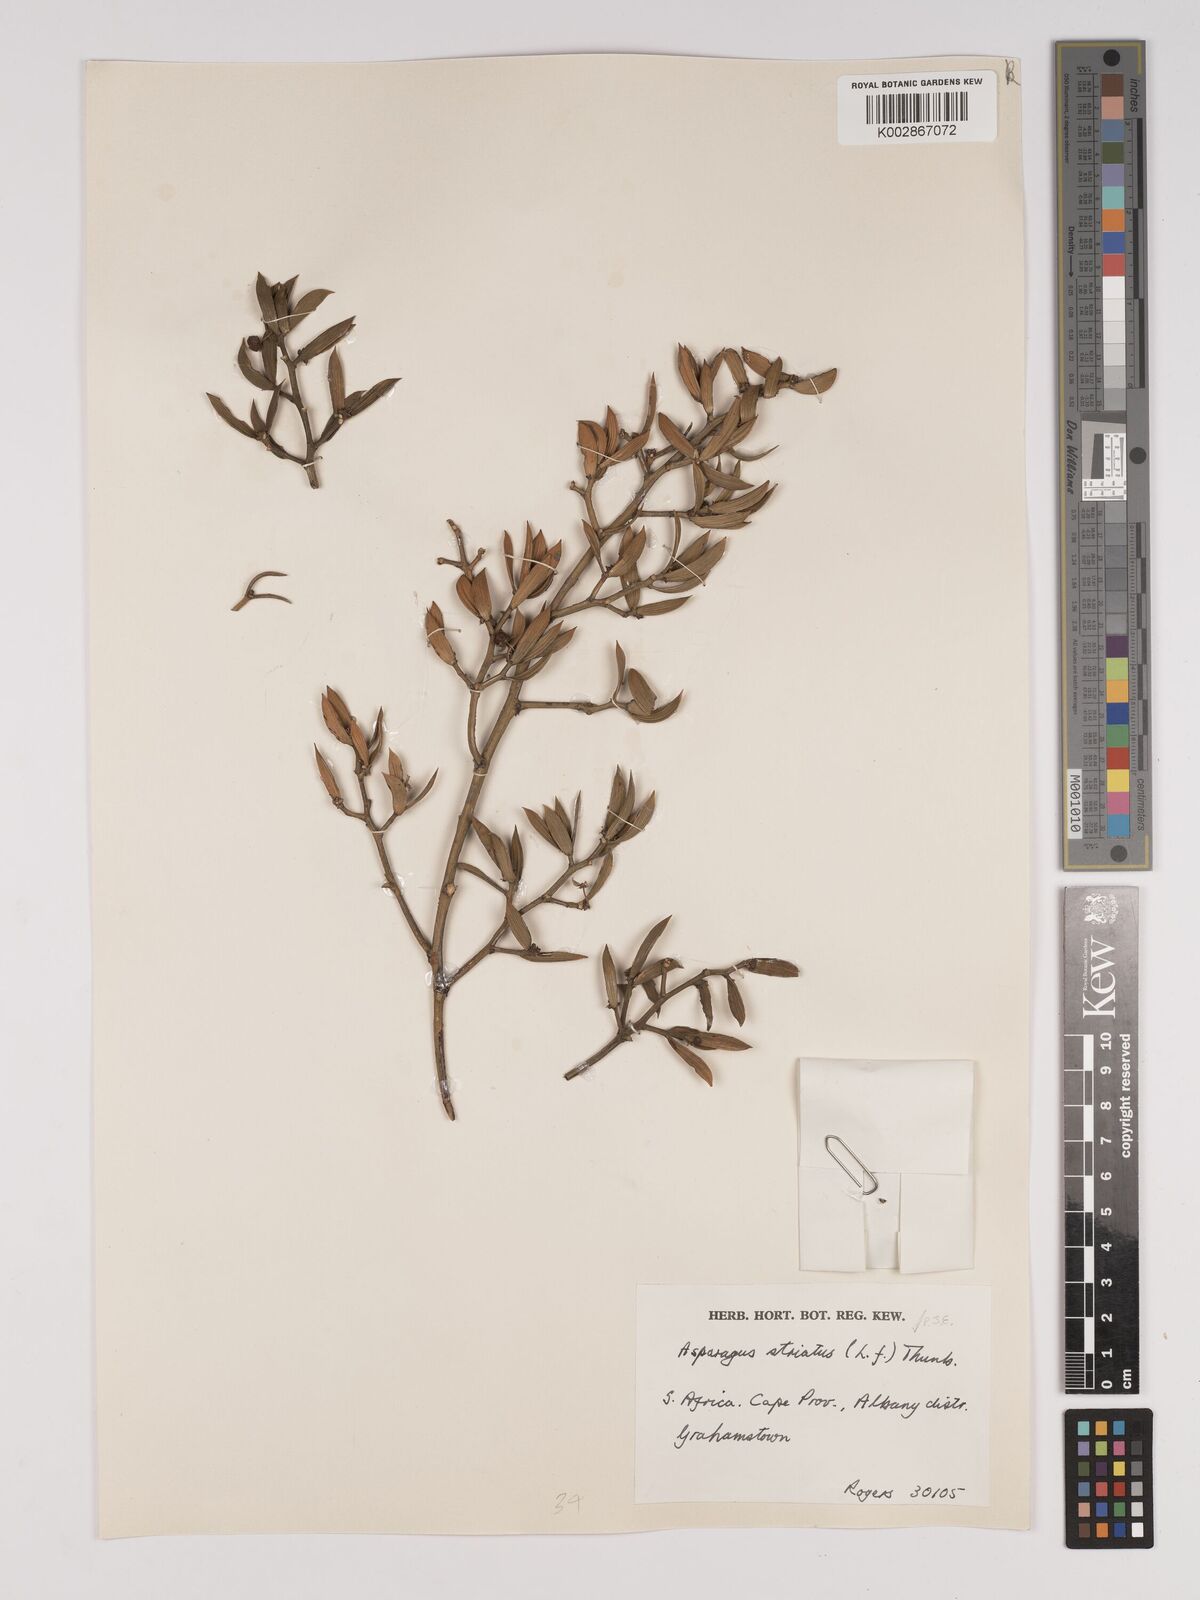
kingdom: Plantae
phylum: Tracheophyta
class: Liliopsida
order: Asparagales
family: Asparagaceae
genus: Asparagus
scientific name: Asparagus striatus
